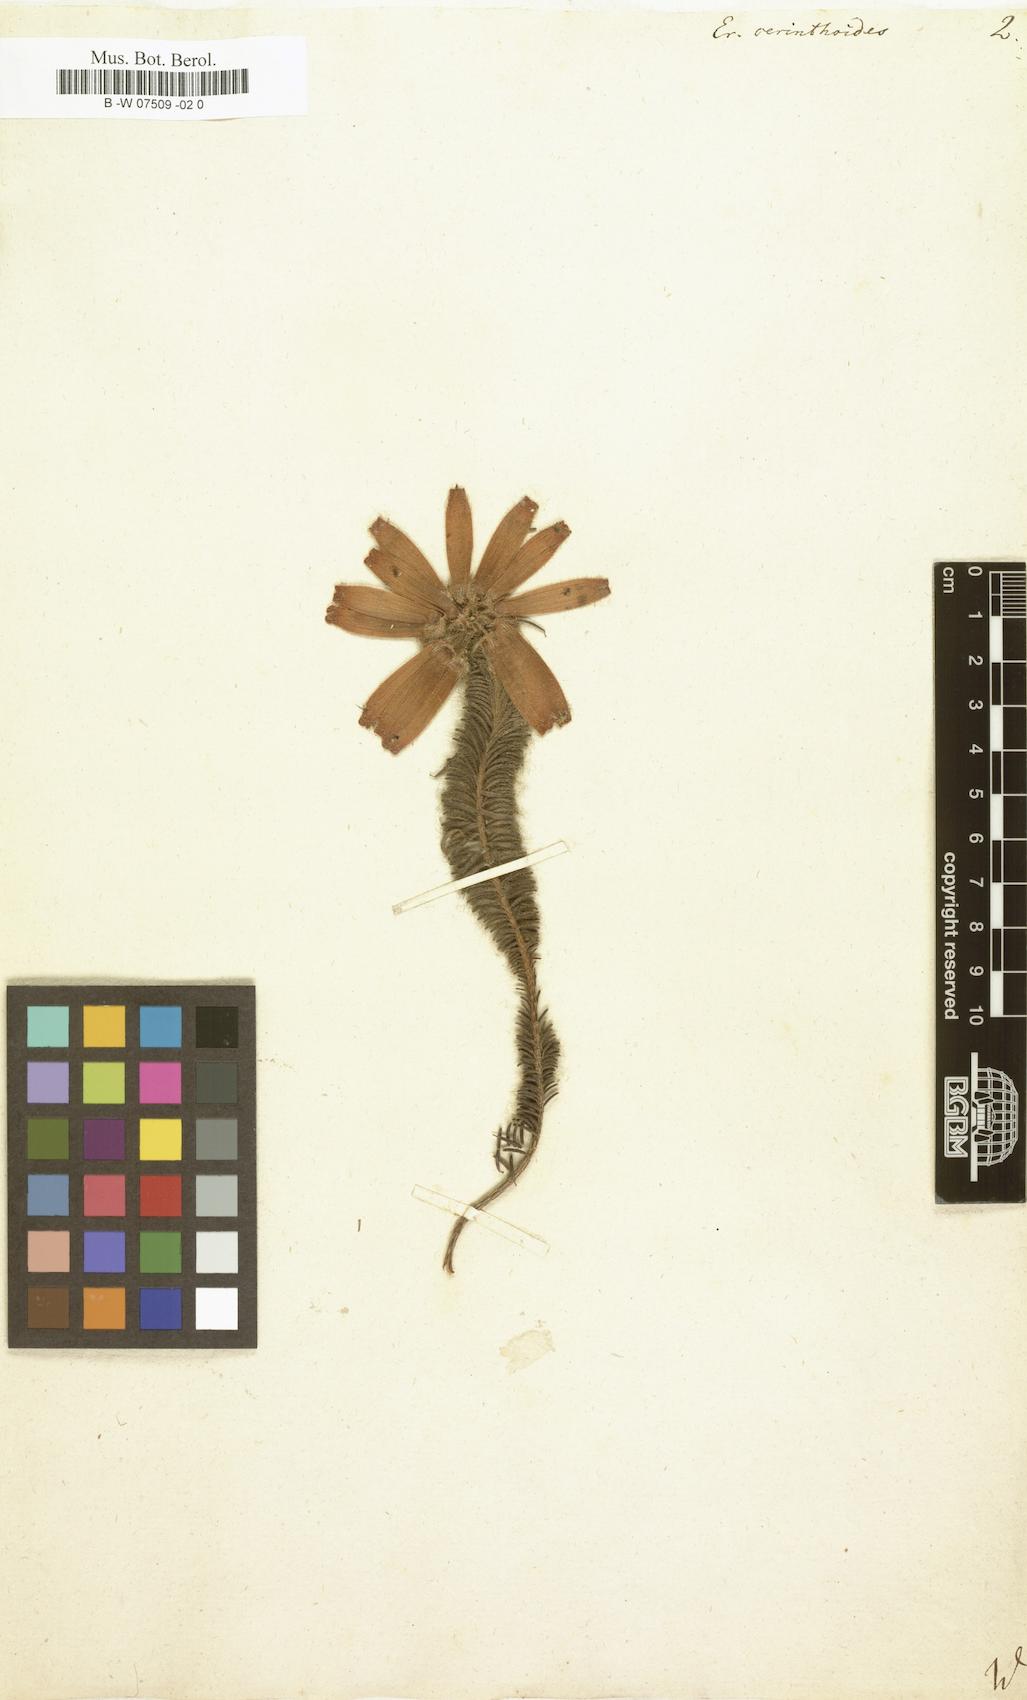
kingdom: Plantae
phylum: Tracheophyta
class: Magnoliopsida
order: Ericales
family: Ericaceae
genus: Erica
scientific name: Erica cerinthoides
